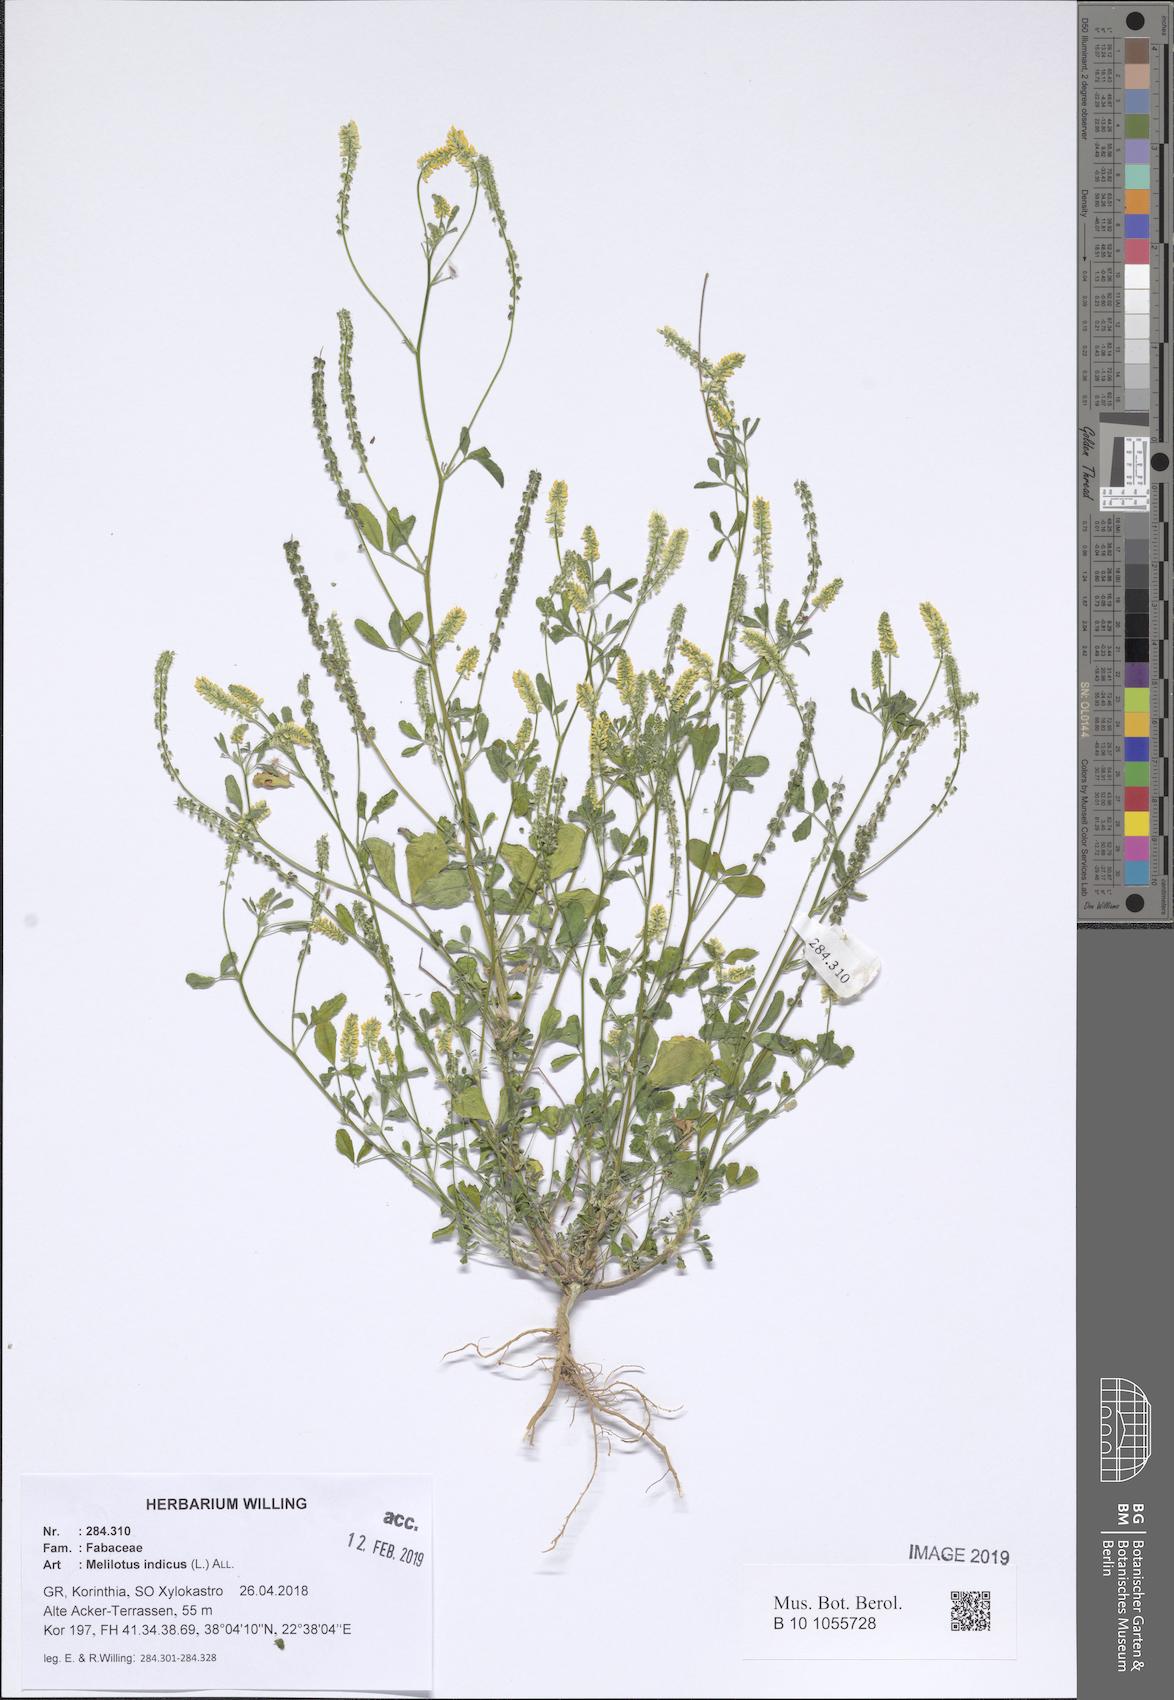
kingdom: Plantae
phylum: Tracheophyta
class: Magnoliopsida
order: Fabales
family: Fabaceae
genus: Melilotus
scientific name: Melilotus indicus
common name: Small melilot
